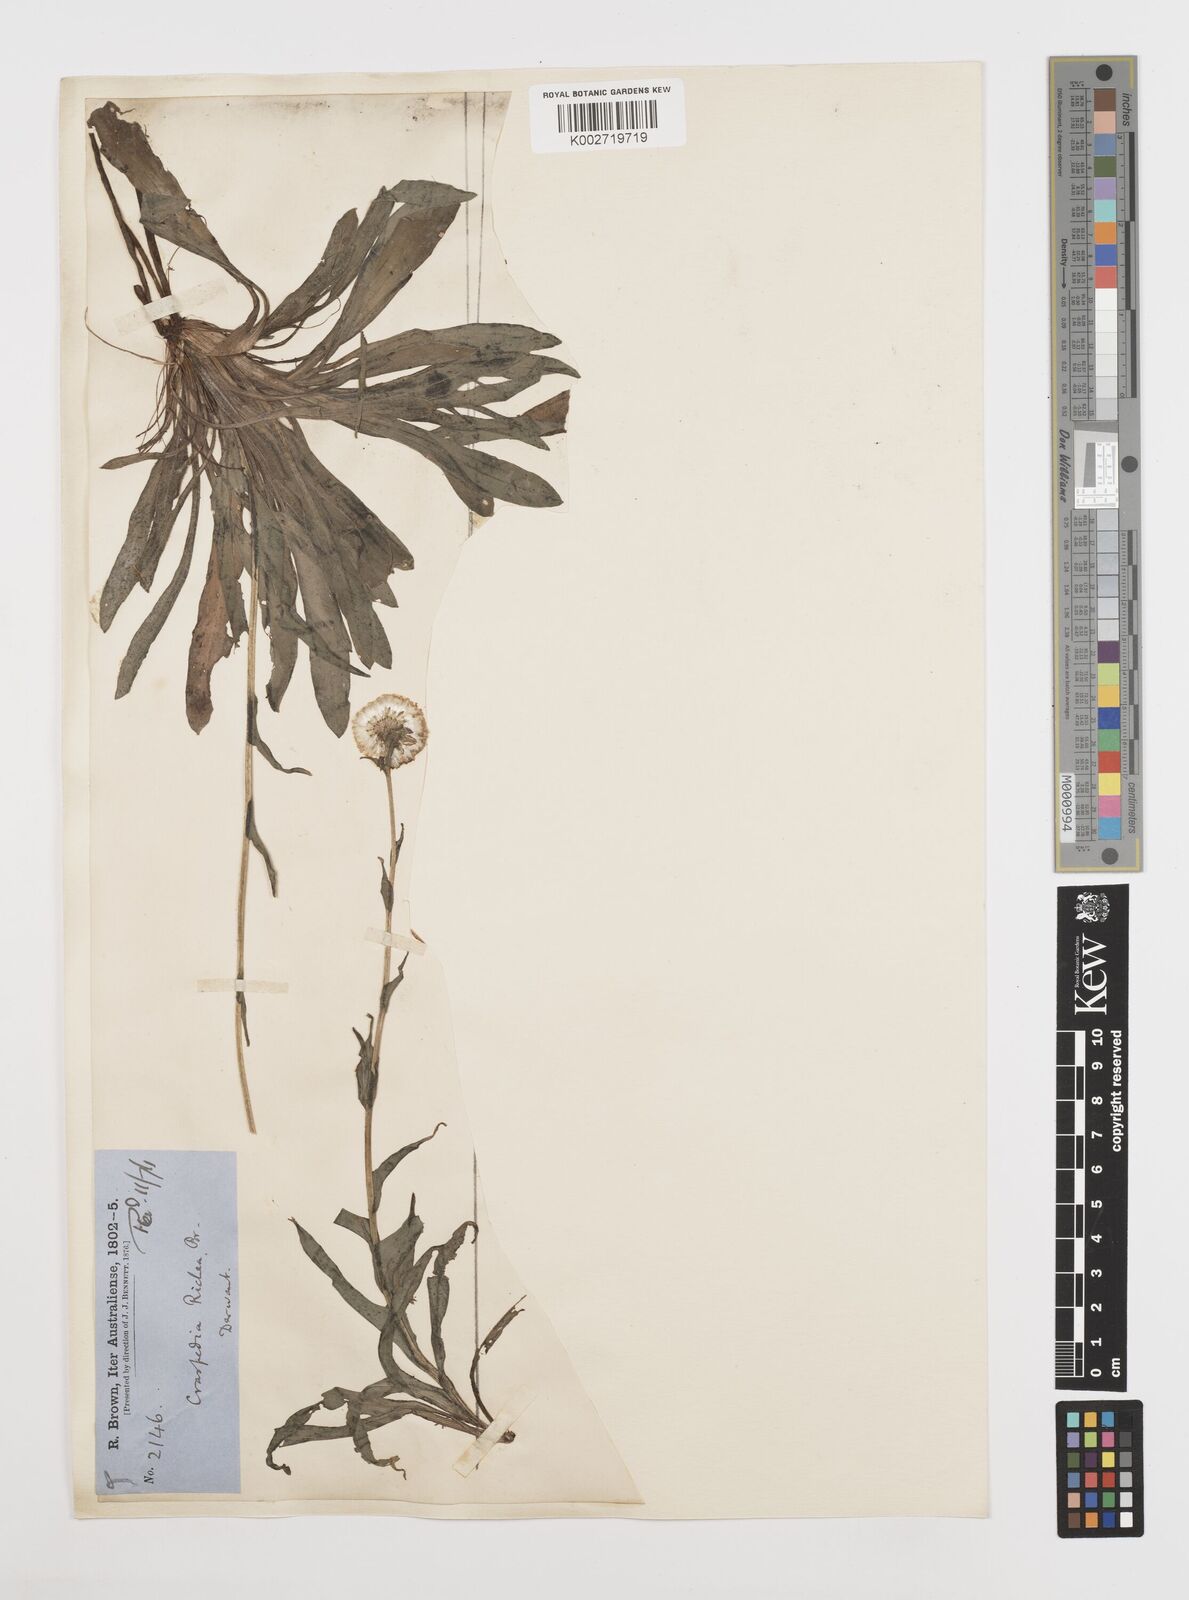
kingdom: Plantae
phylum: Tracheophyta
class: Magnoliopsida
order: Asterales
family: Asteraceae
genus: Craspedia
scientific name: Craspedia glauca
